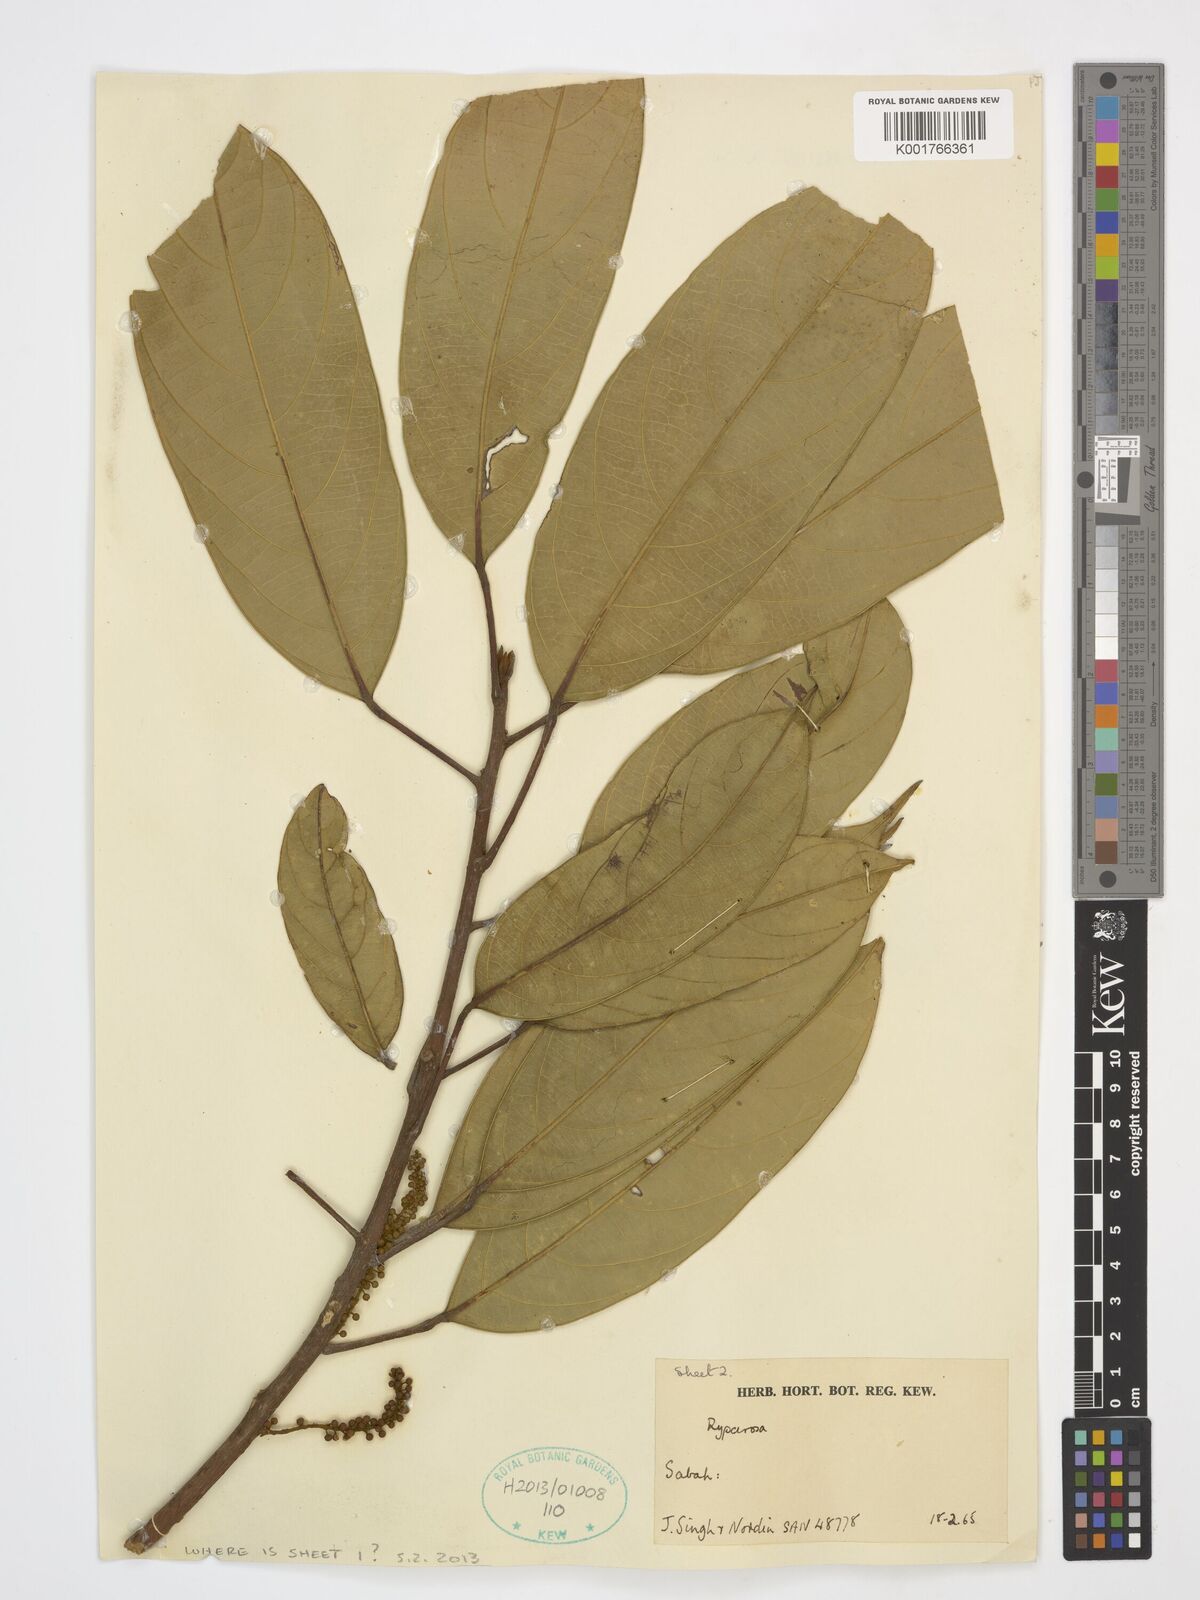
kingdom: Plantae
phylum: Tracheophyta
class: Magnoliopsida
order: Malpighiales
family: Achariaceae
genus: Ryparosa
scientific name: Ryparosa
